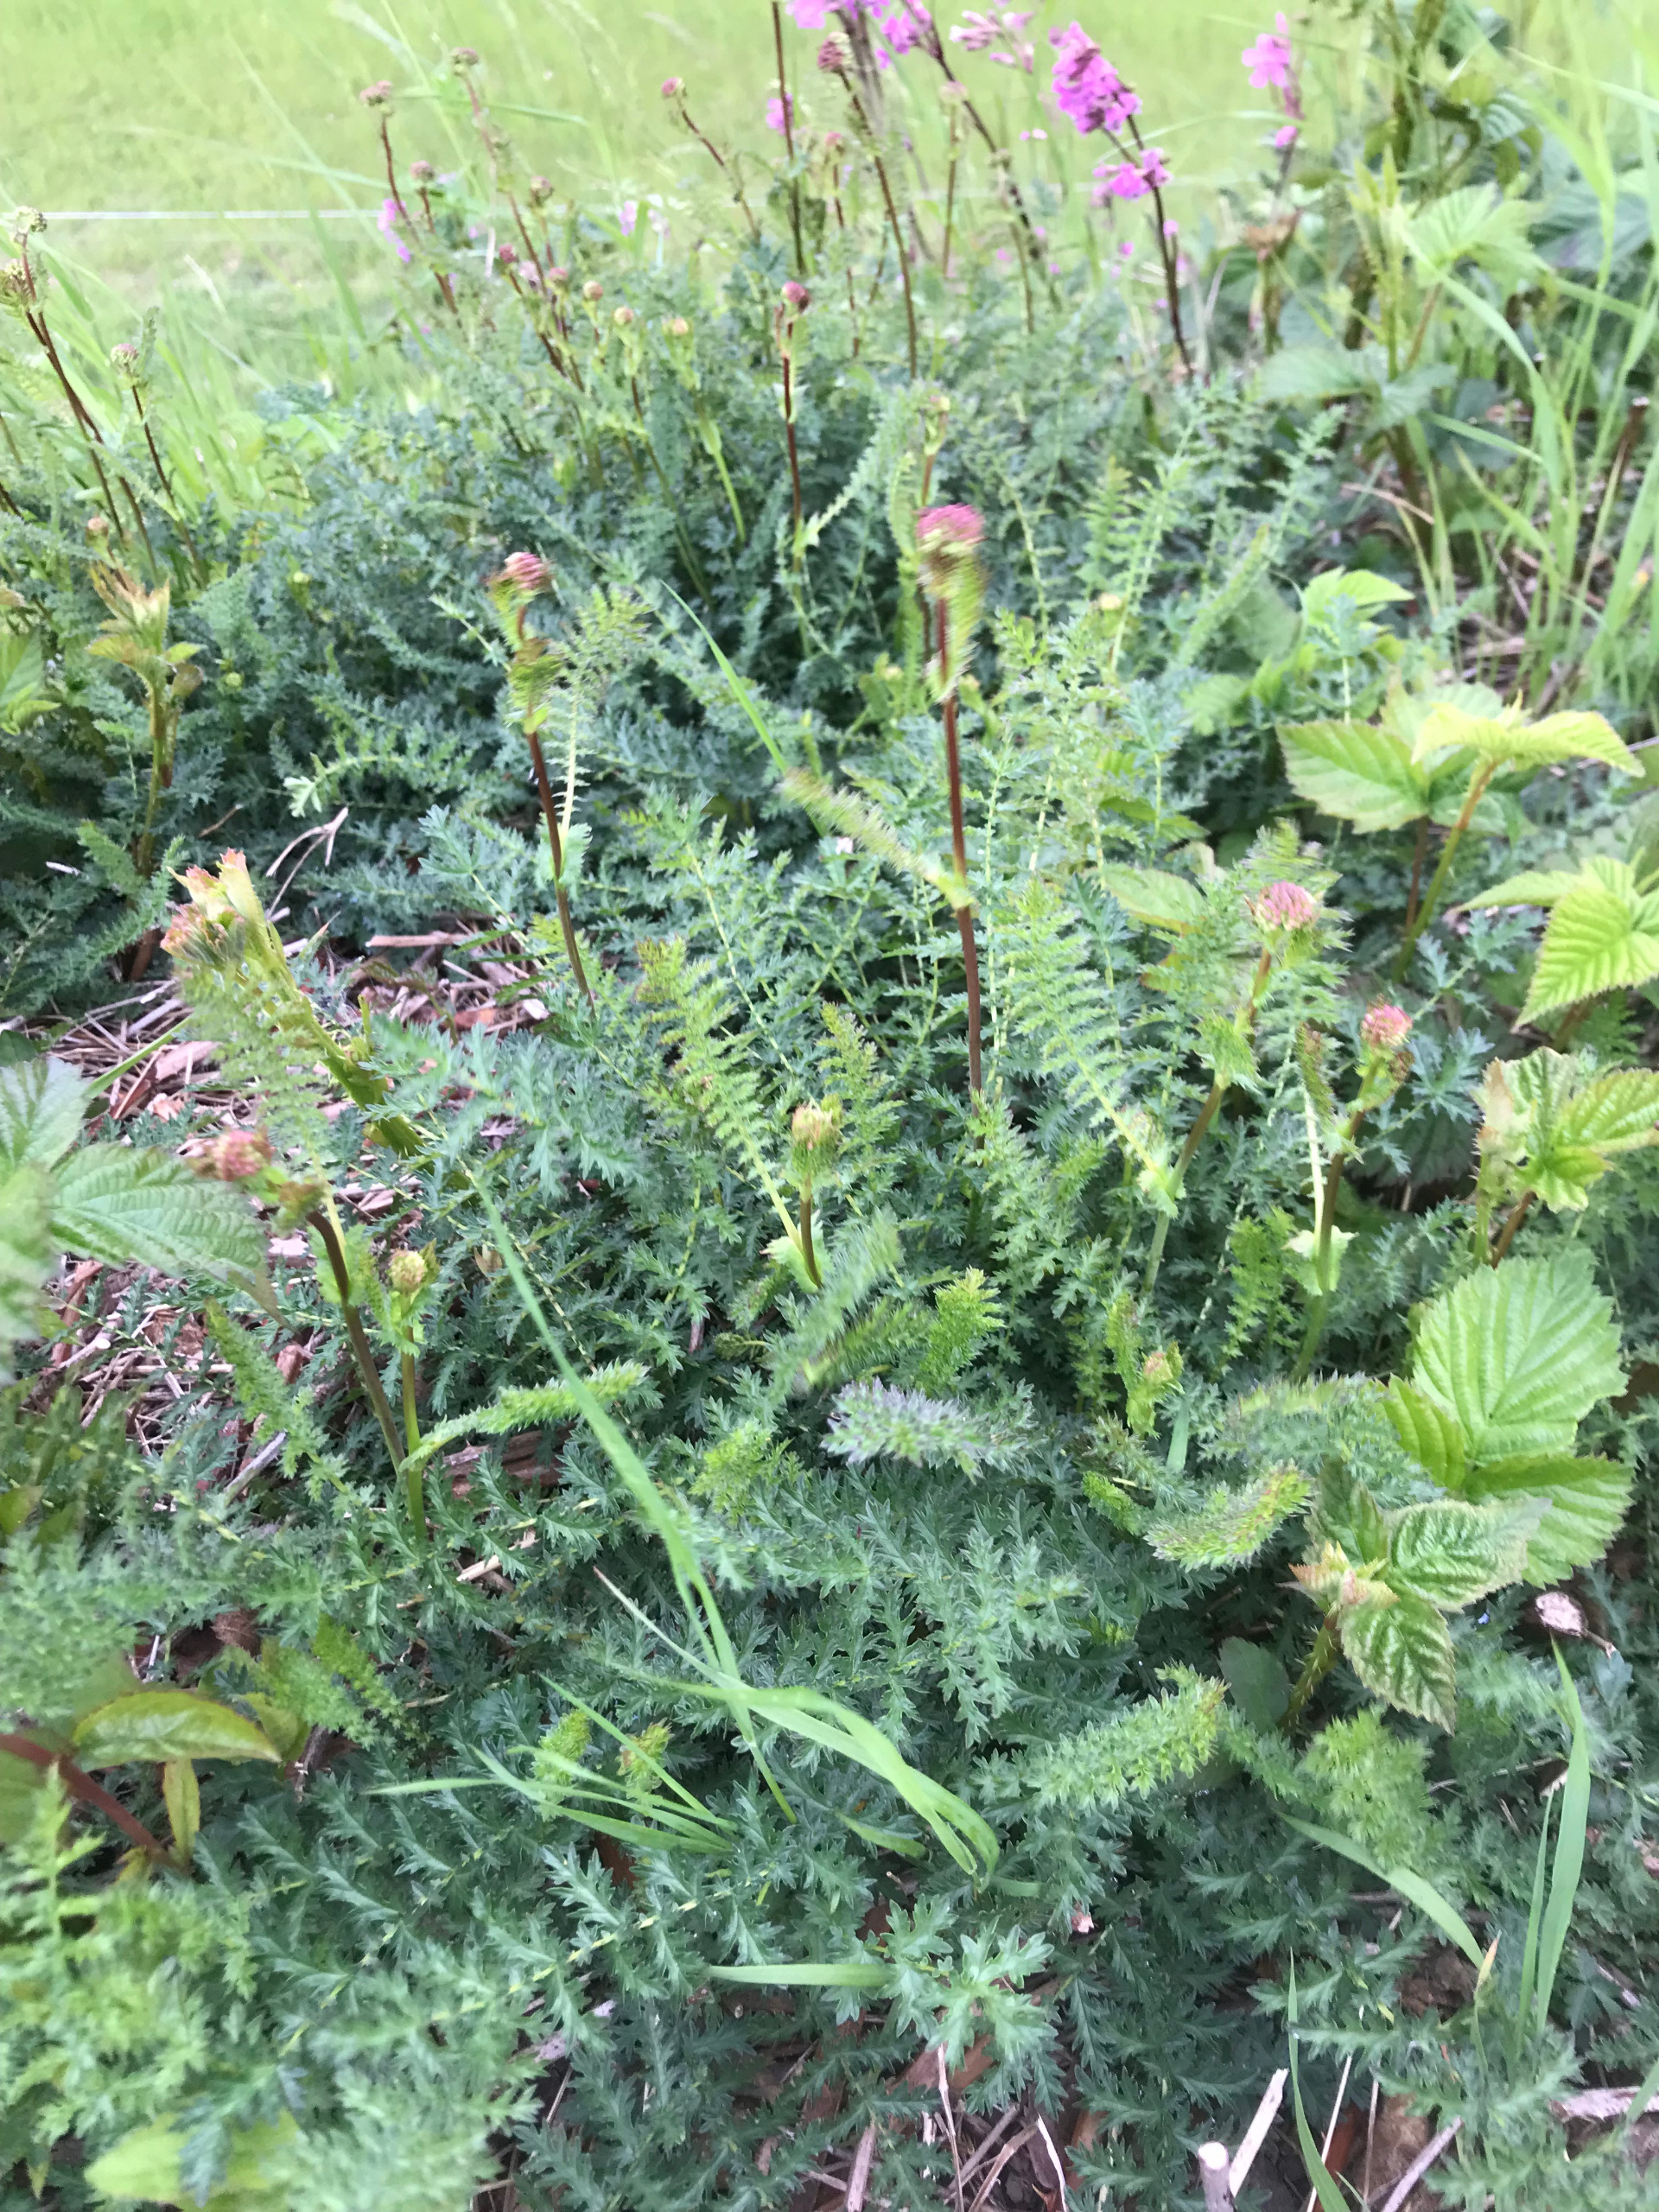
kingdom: Plantae
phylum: Tracheophyta
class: Magnoliopsida
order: Rosales
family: Rosaceae
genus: Filipendula
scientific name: Filipendula vulgaris
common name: Knoldet mjødurt
